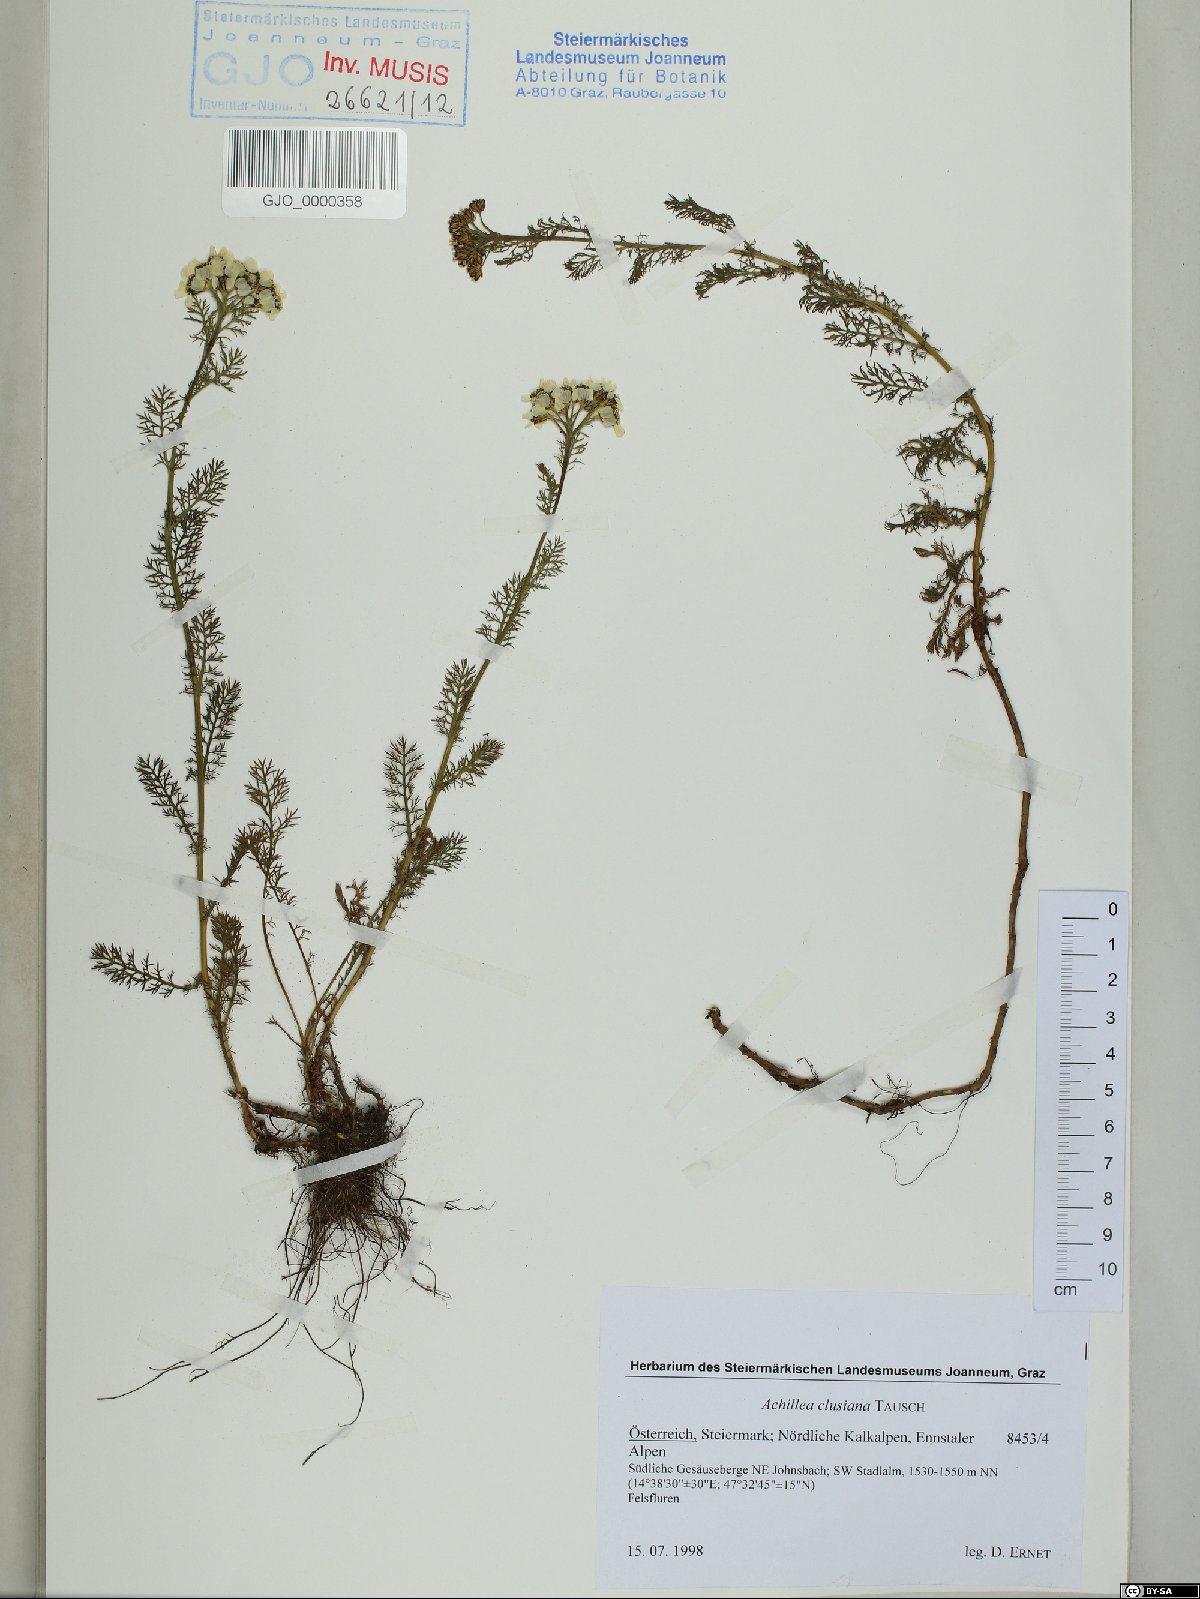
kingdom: Plantae
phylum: Tracheophyta
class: Magnoliopsida
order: Asterales
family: Asteraceae
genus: Achillea
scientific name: Achillea clusiana
